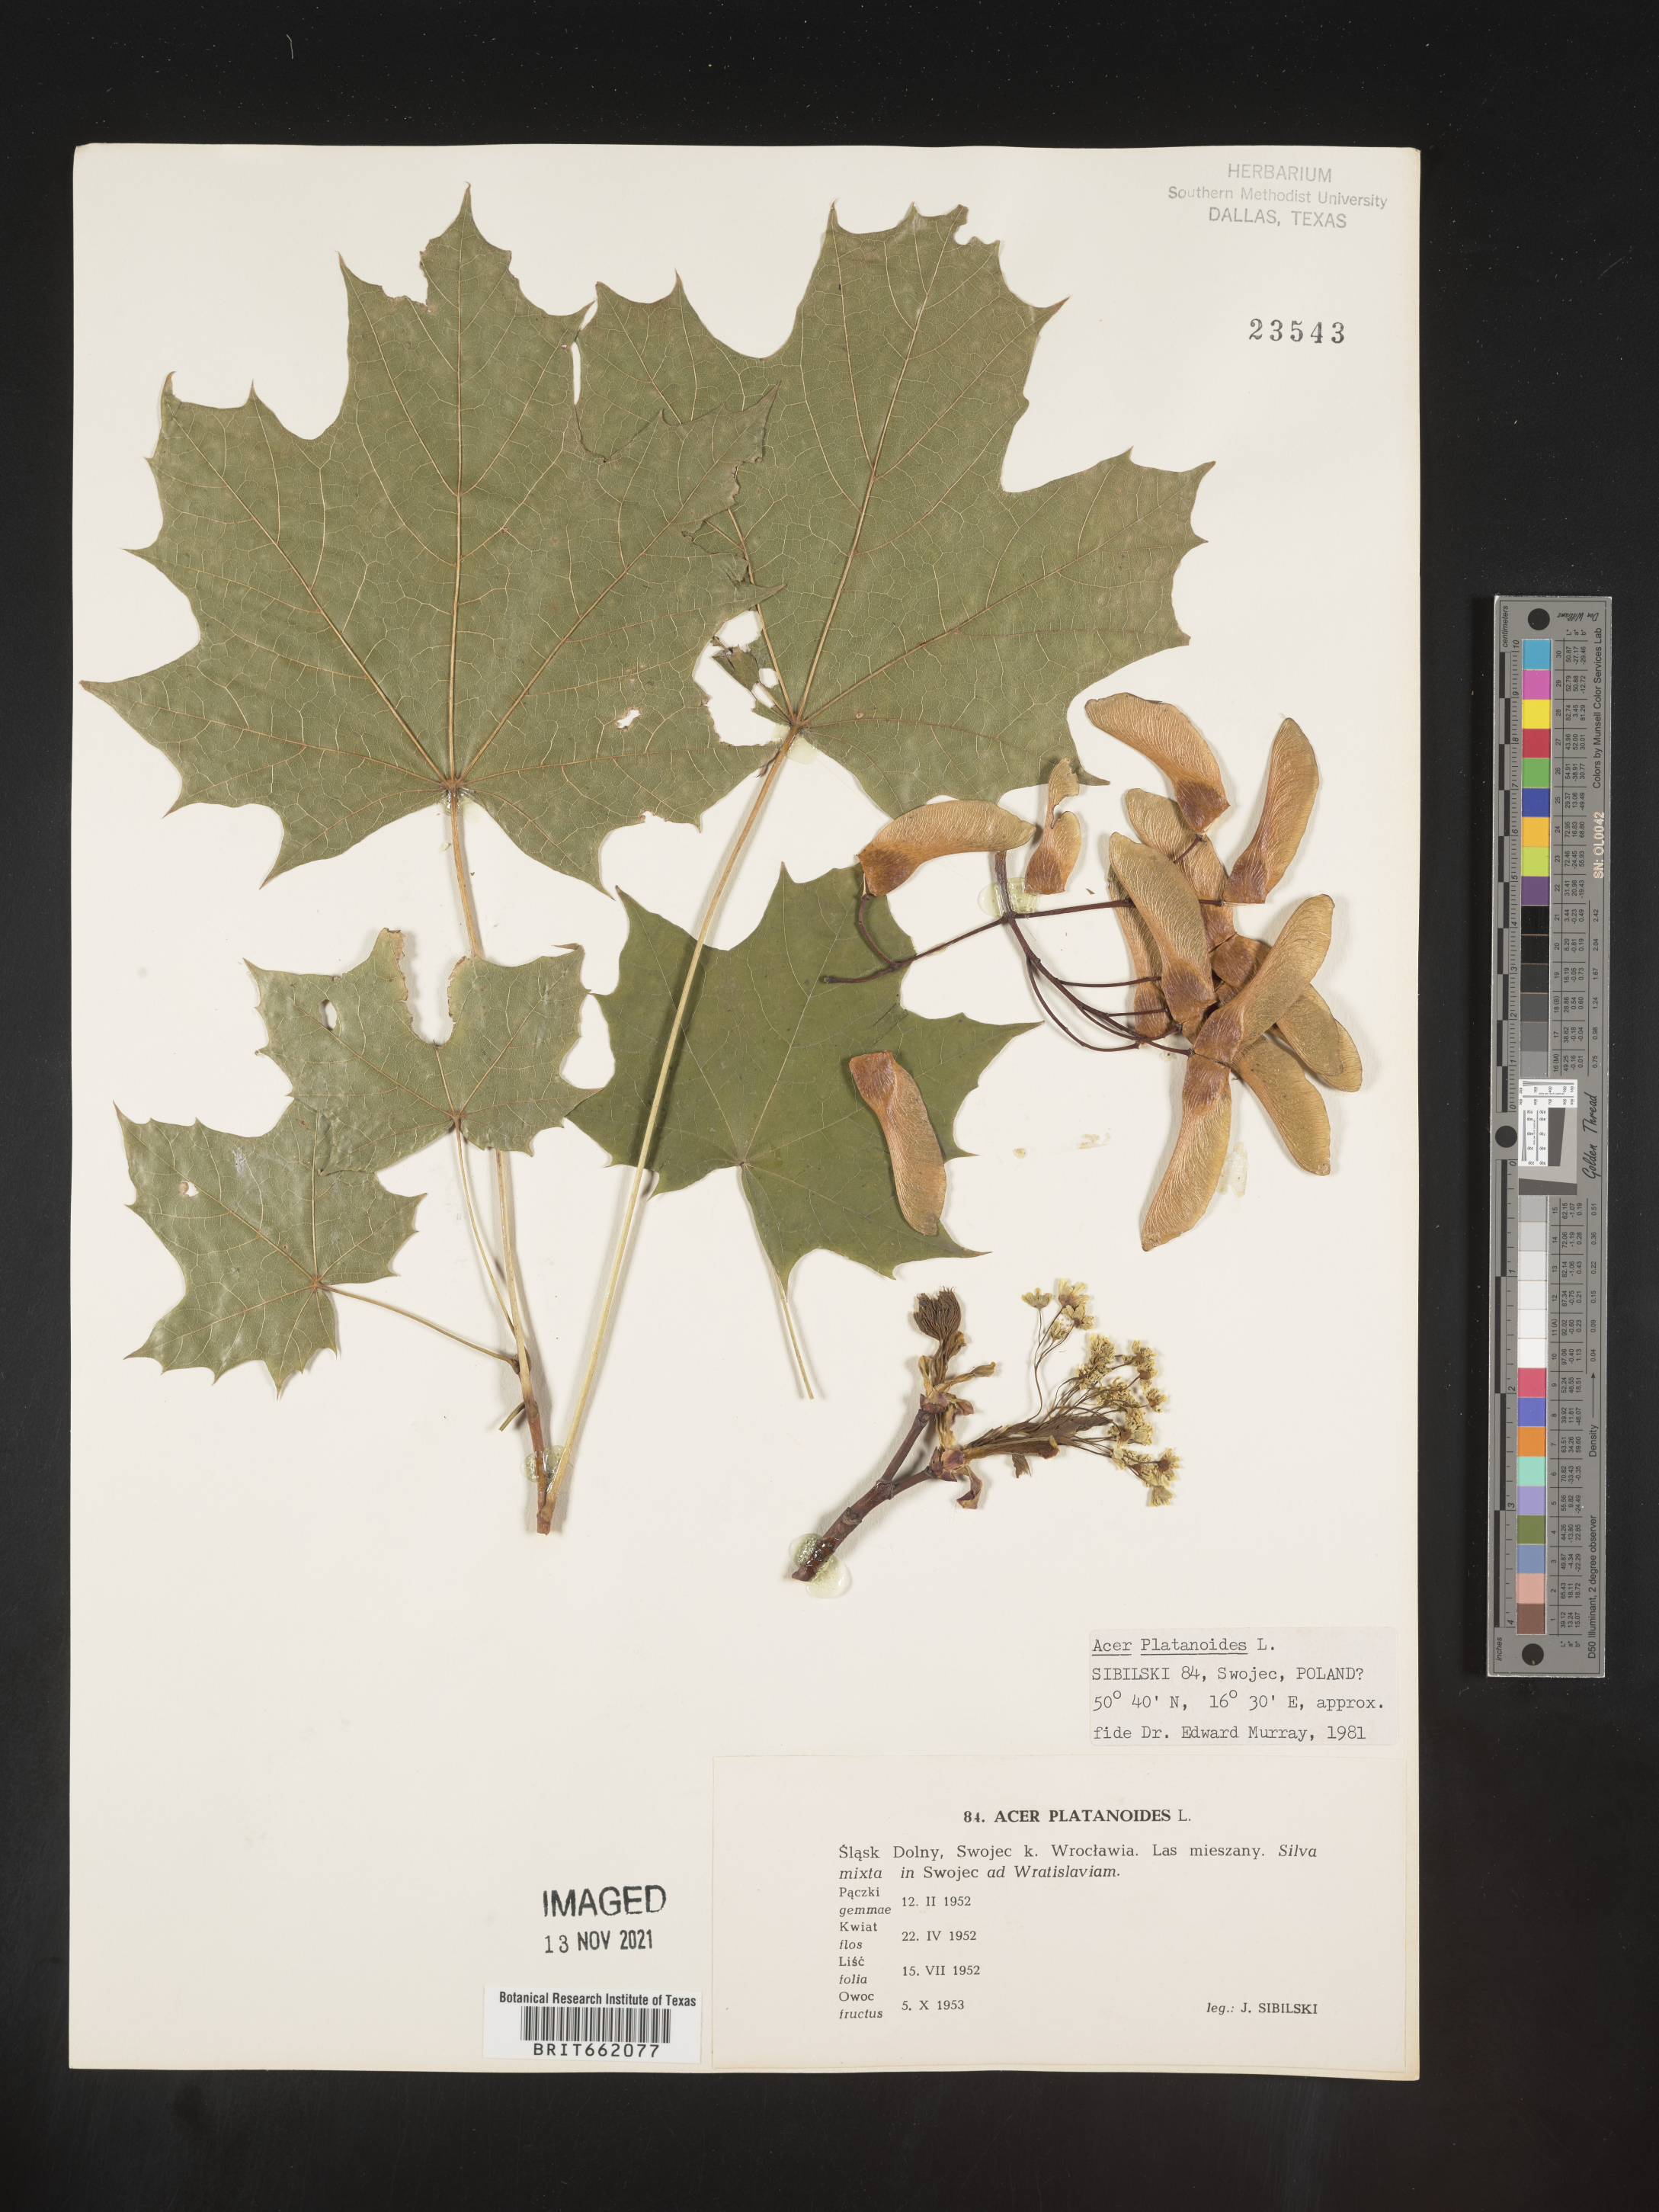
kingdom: Plantae
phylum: Tracheophyta
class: Magnoliopsida
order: Sapindales
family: Sapindaceae
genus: Acer
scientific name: Acer
